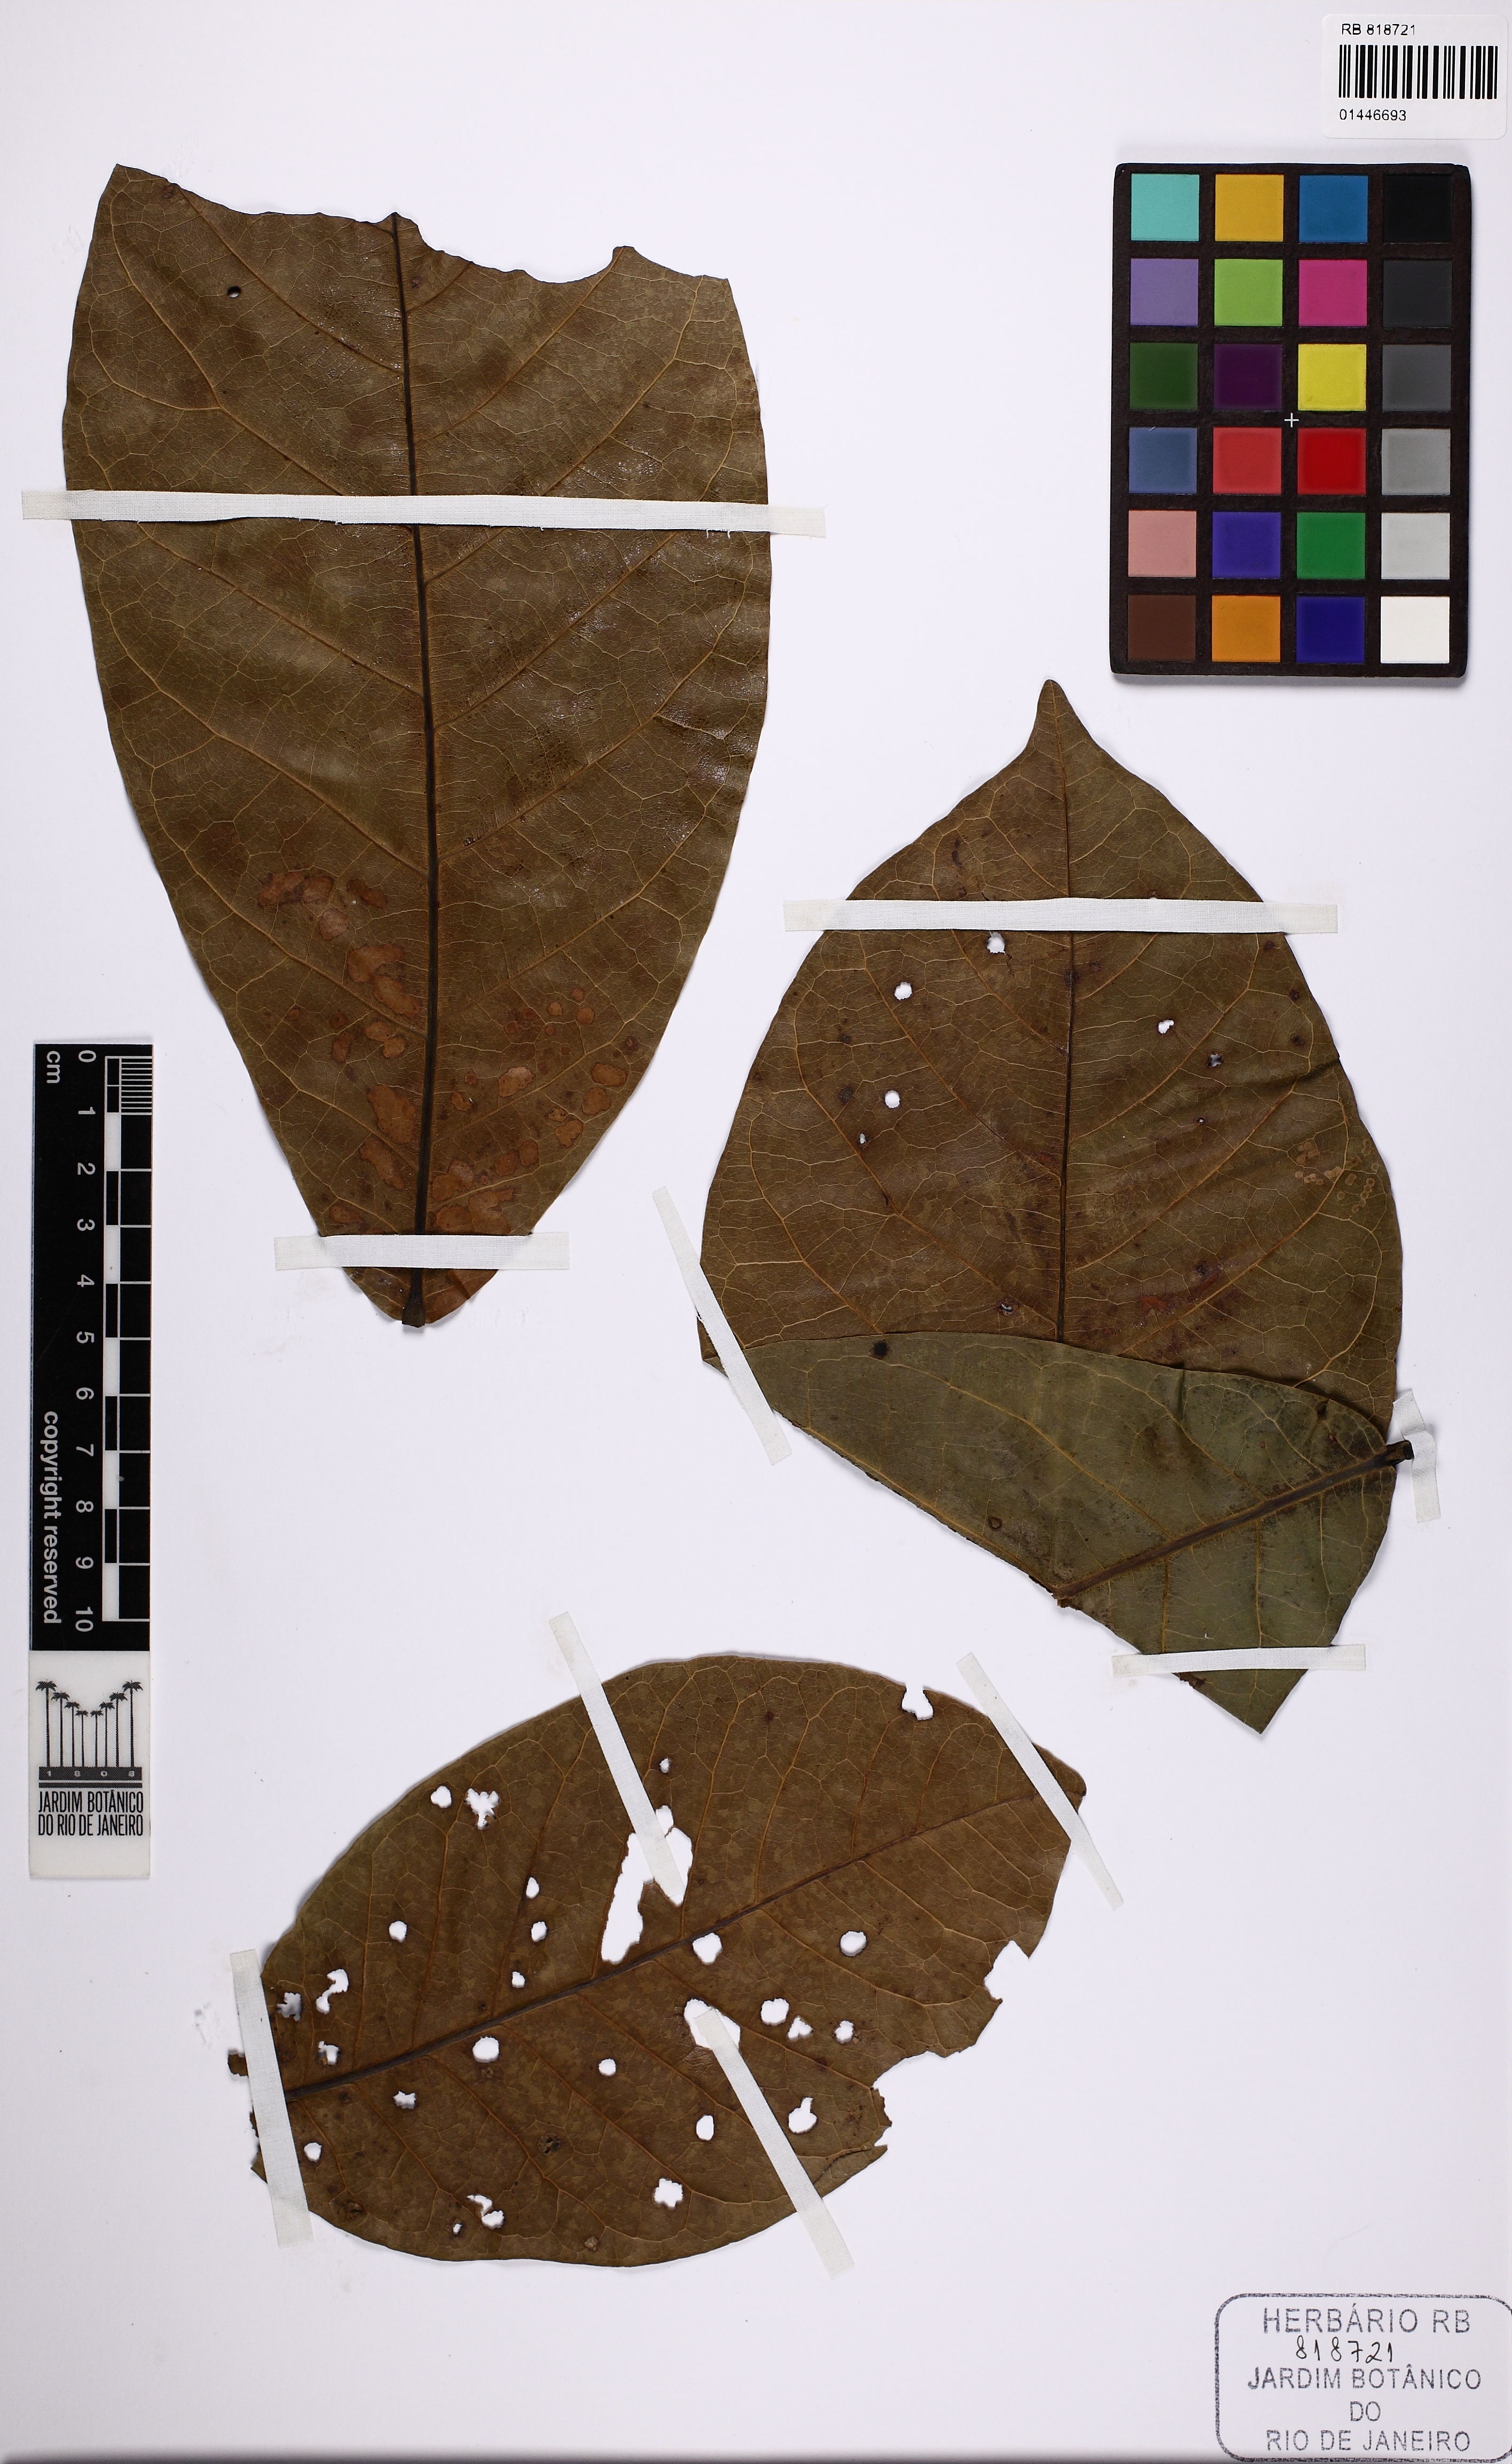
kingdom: Plantae
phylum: Tracheophyta
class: Magnoliopsida
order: Oxalidales
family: Elaeocarpaceae
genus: Sloanea
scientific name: Sloanea laurifolia
